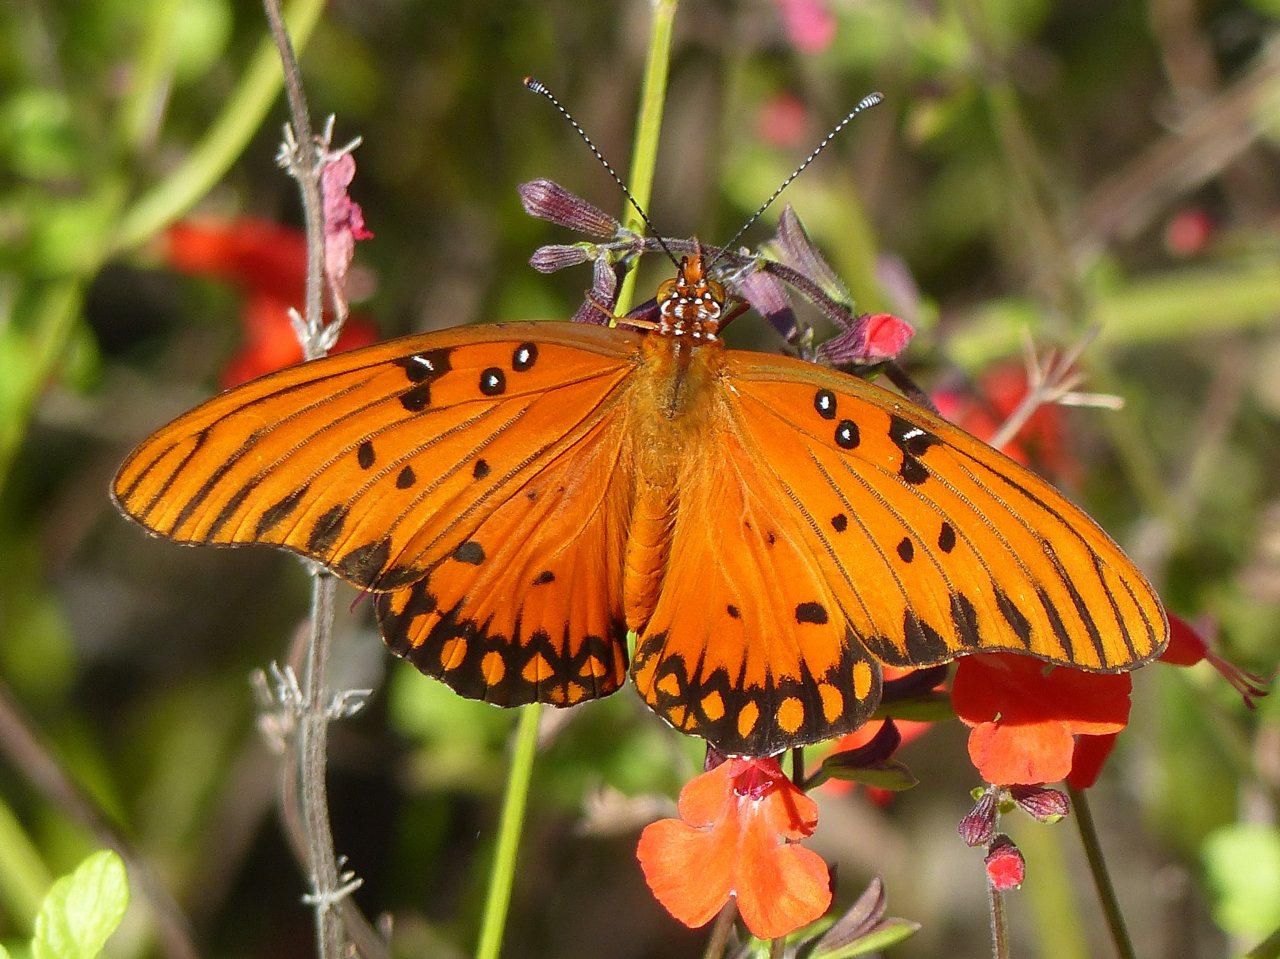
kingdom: Animalia
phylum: Arthropoda
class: Insecta
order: Lepidoptera
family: Nymphalidae
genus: Dione
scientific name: Dione vanillae
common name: Gulf Fritillary
